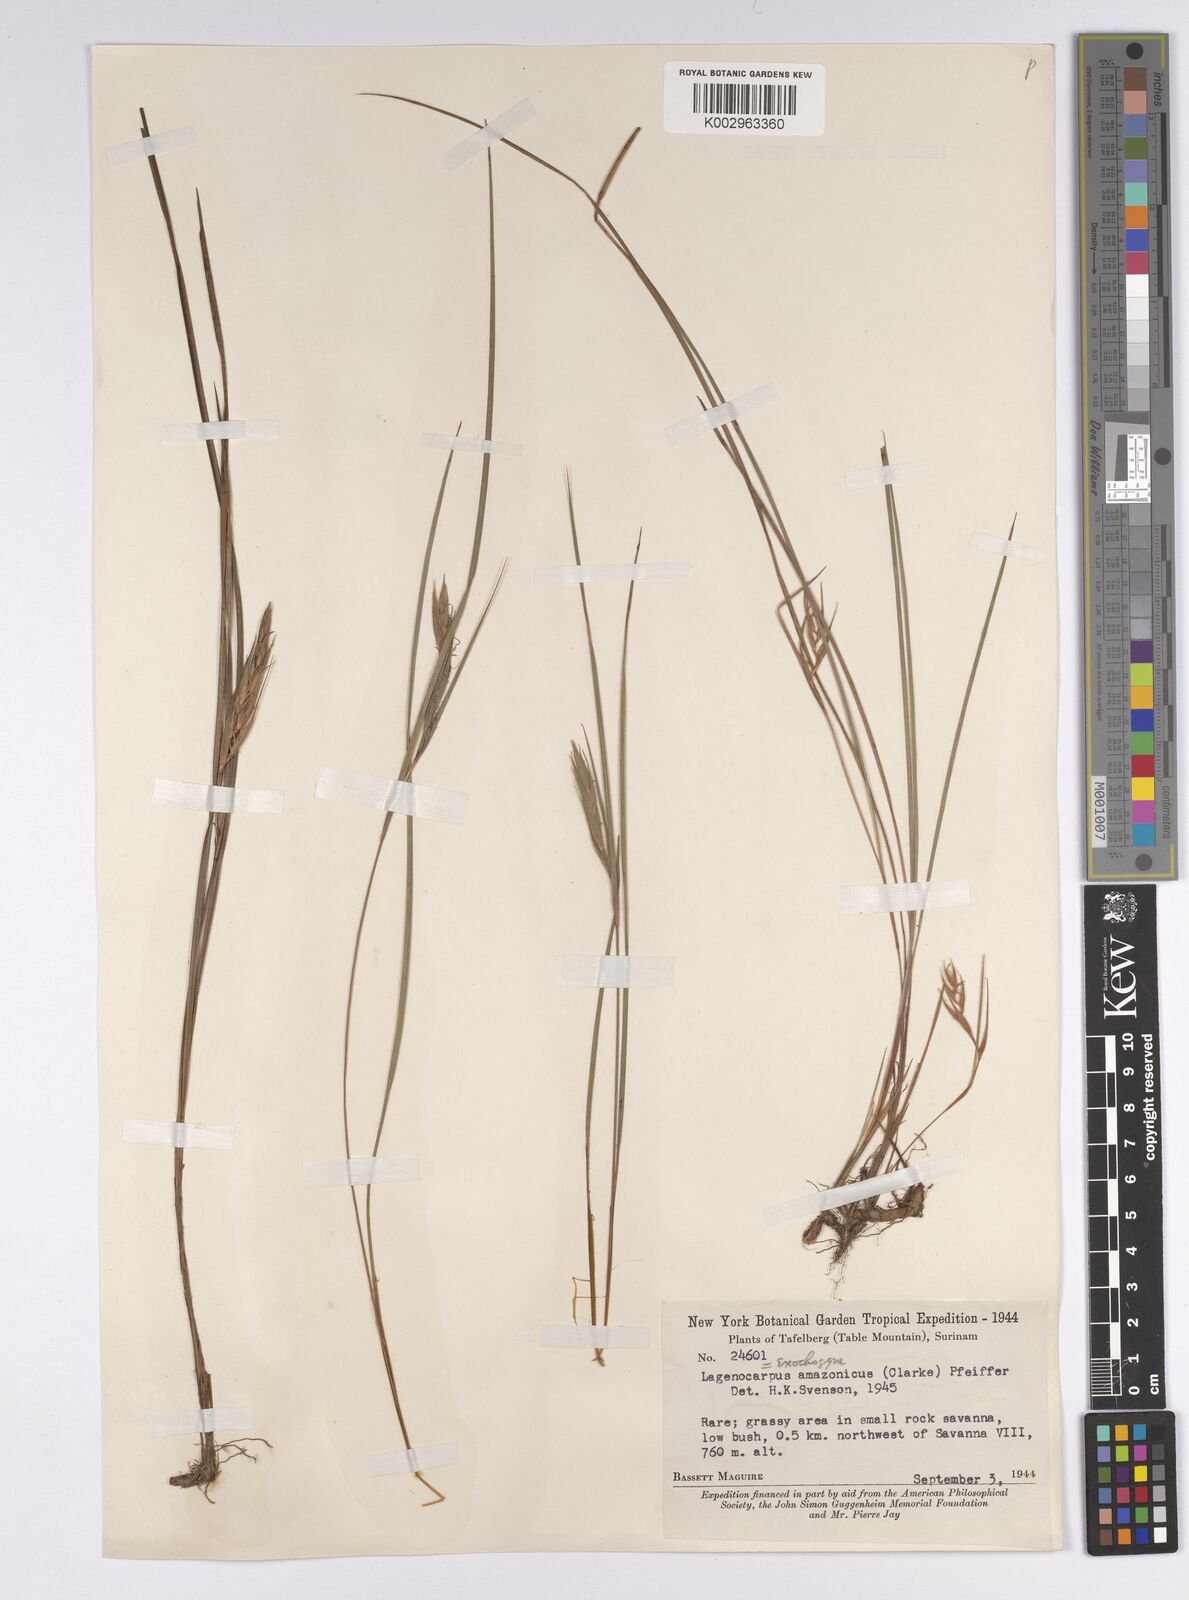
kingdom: Plantae
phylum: Tracheophyta
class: Liliopsida
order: Poales
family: Cyperaceae
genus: Exochogyne
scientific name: Exochogyne amazonica
